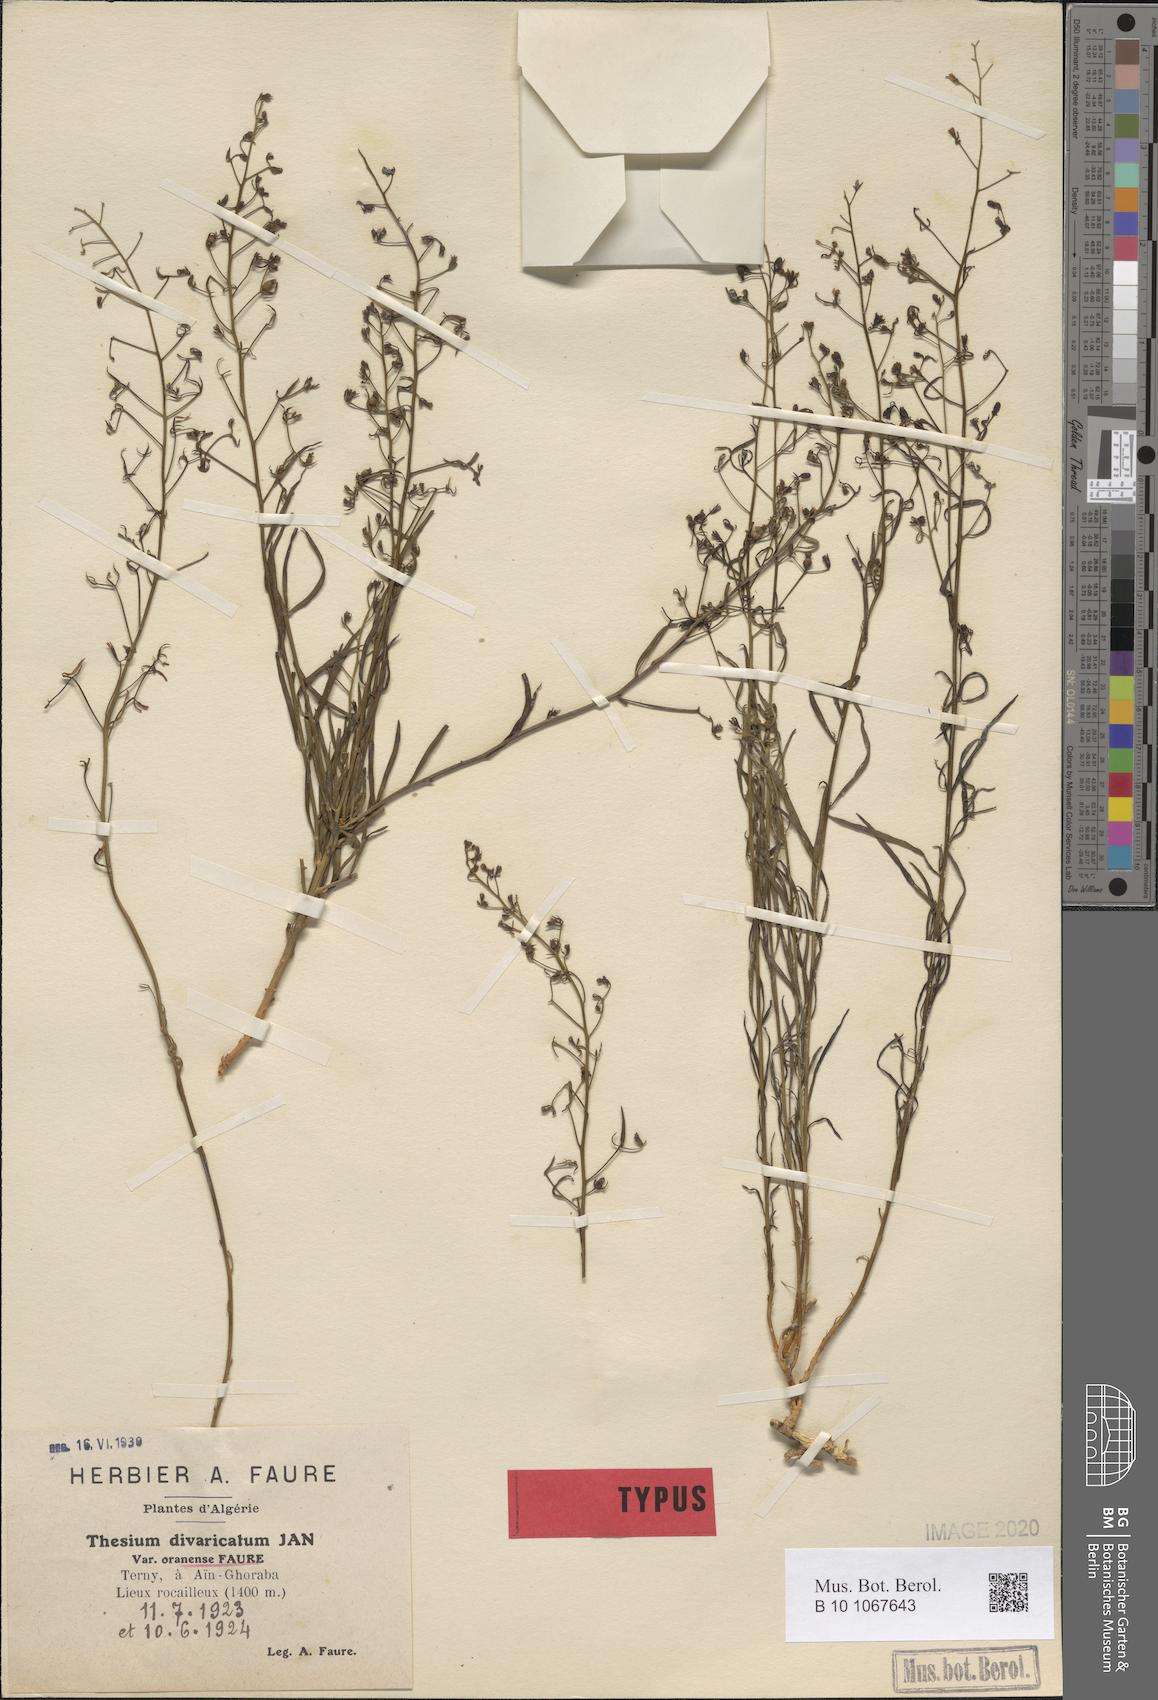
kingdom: Plantae
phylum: Tracheophyta
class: Magnoliopsida
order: Santalales
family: Thesiaceae
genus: Thesium
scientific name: Thesium divaricatum
